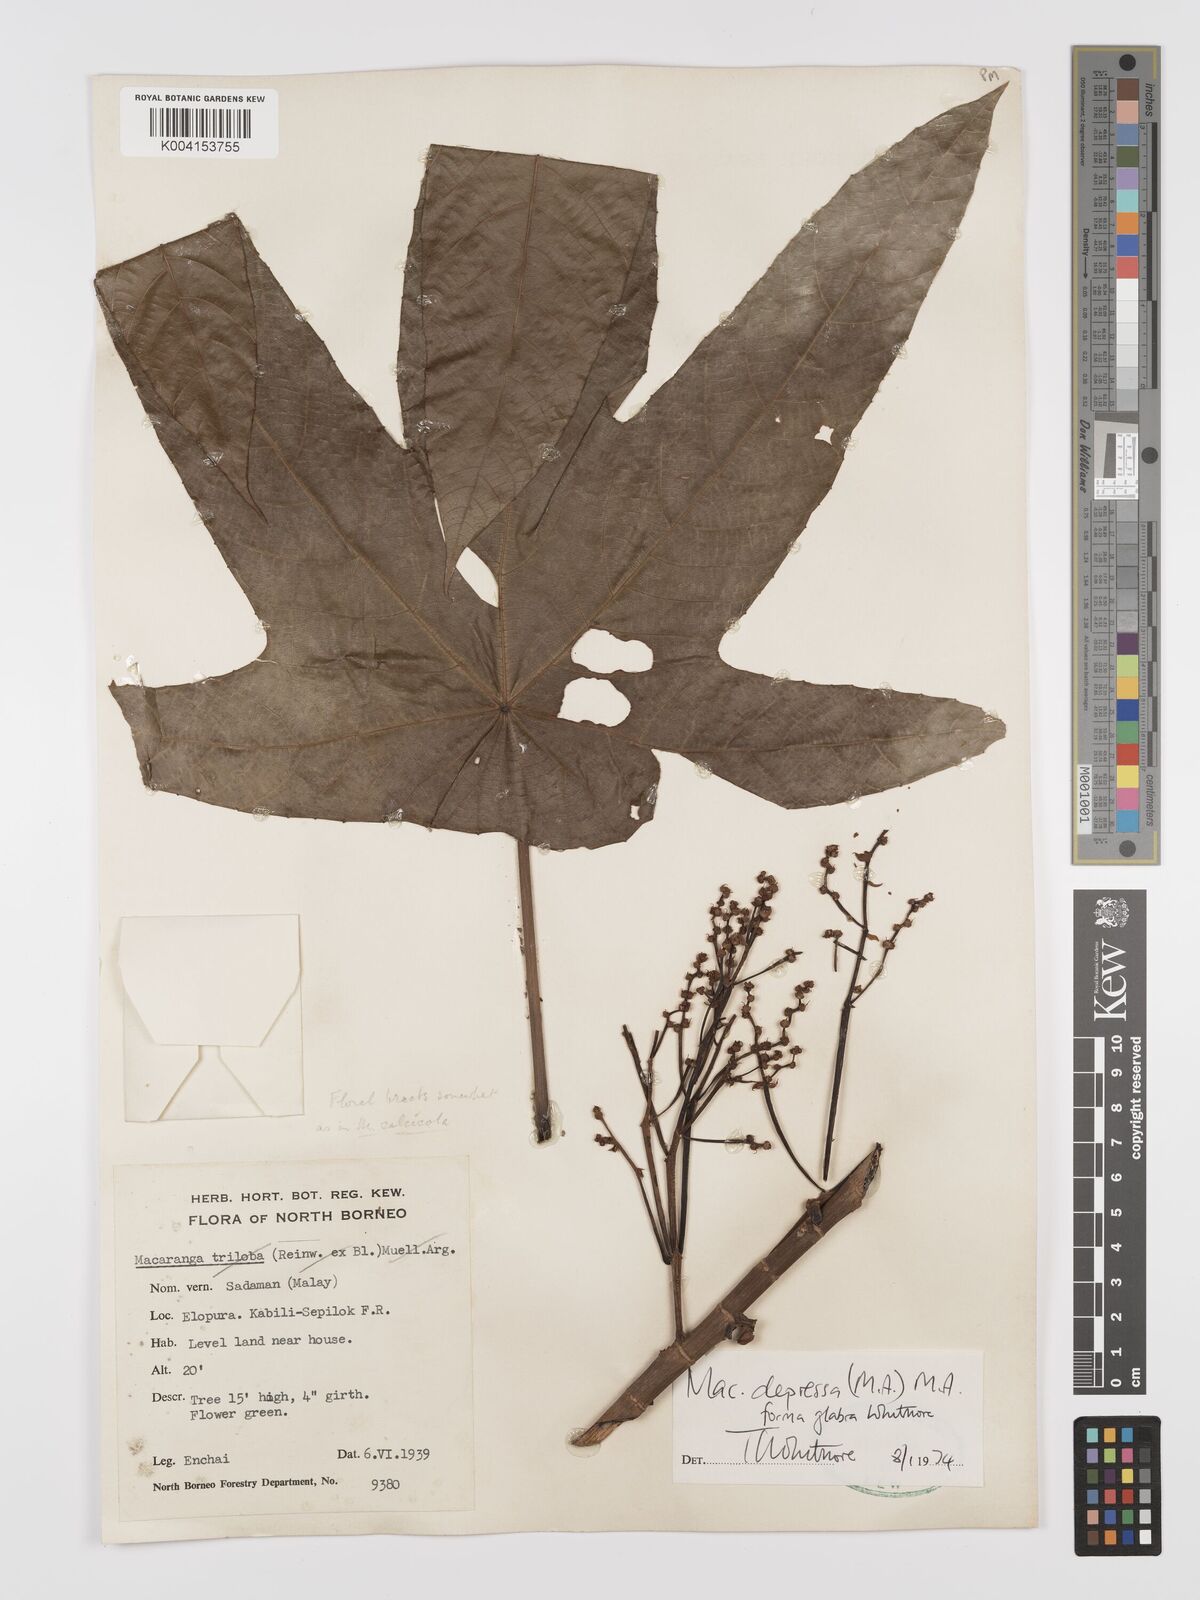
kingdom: Plantae
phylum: Tracheophyta
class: Magnoliopsida
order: Malpighiales
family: Euphorbiaceae
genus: Macaranga
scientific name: Macaranga depressa
